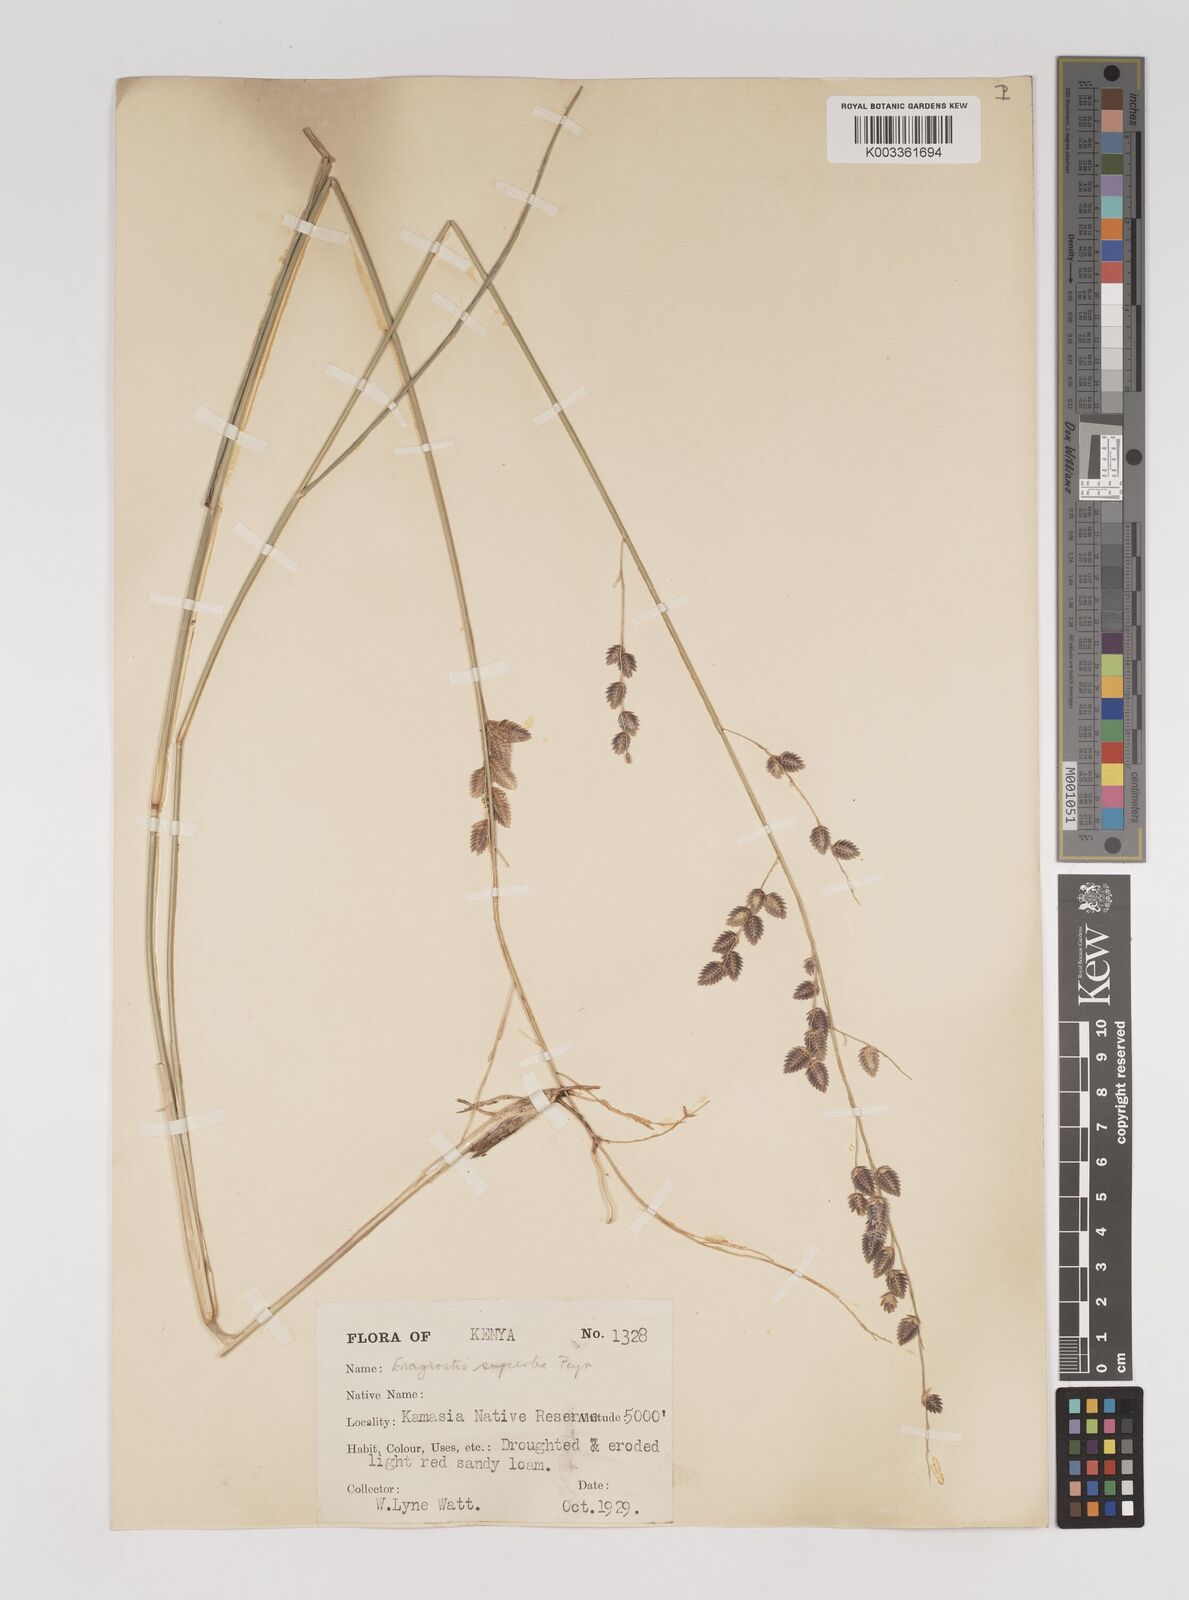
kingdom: Plantae
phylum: Tracheophyta
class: Liliopsida
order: Poales
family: Poaceae
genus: Eragrostis
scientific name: Eragrostis superba
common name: Wilman lovegrass
